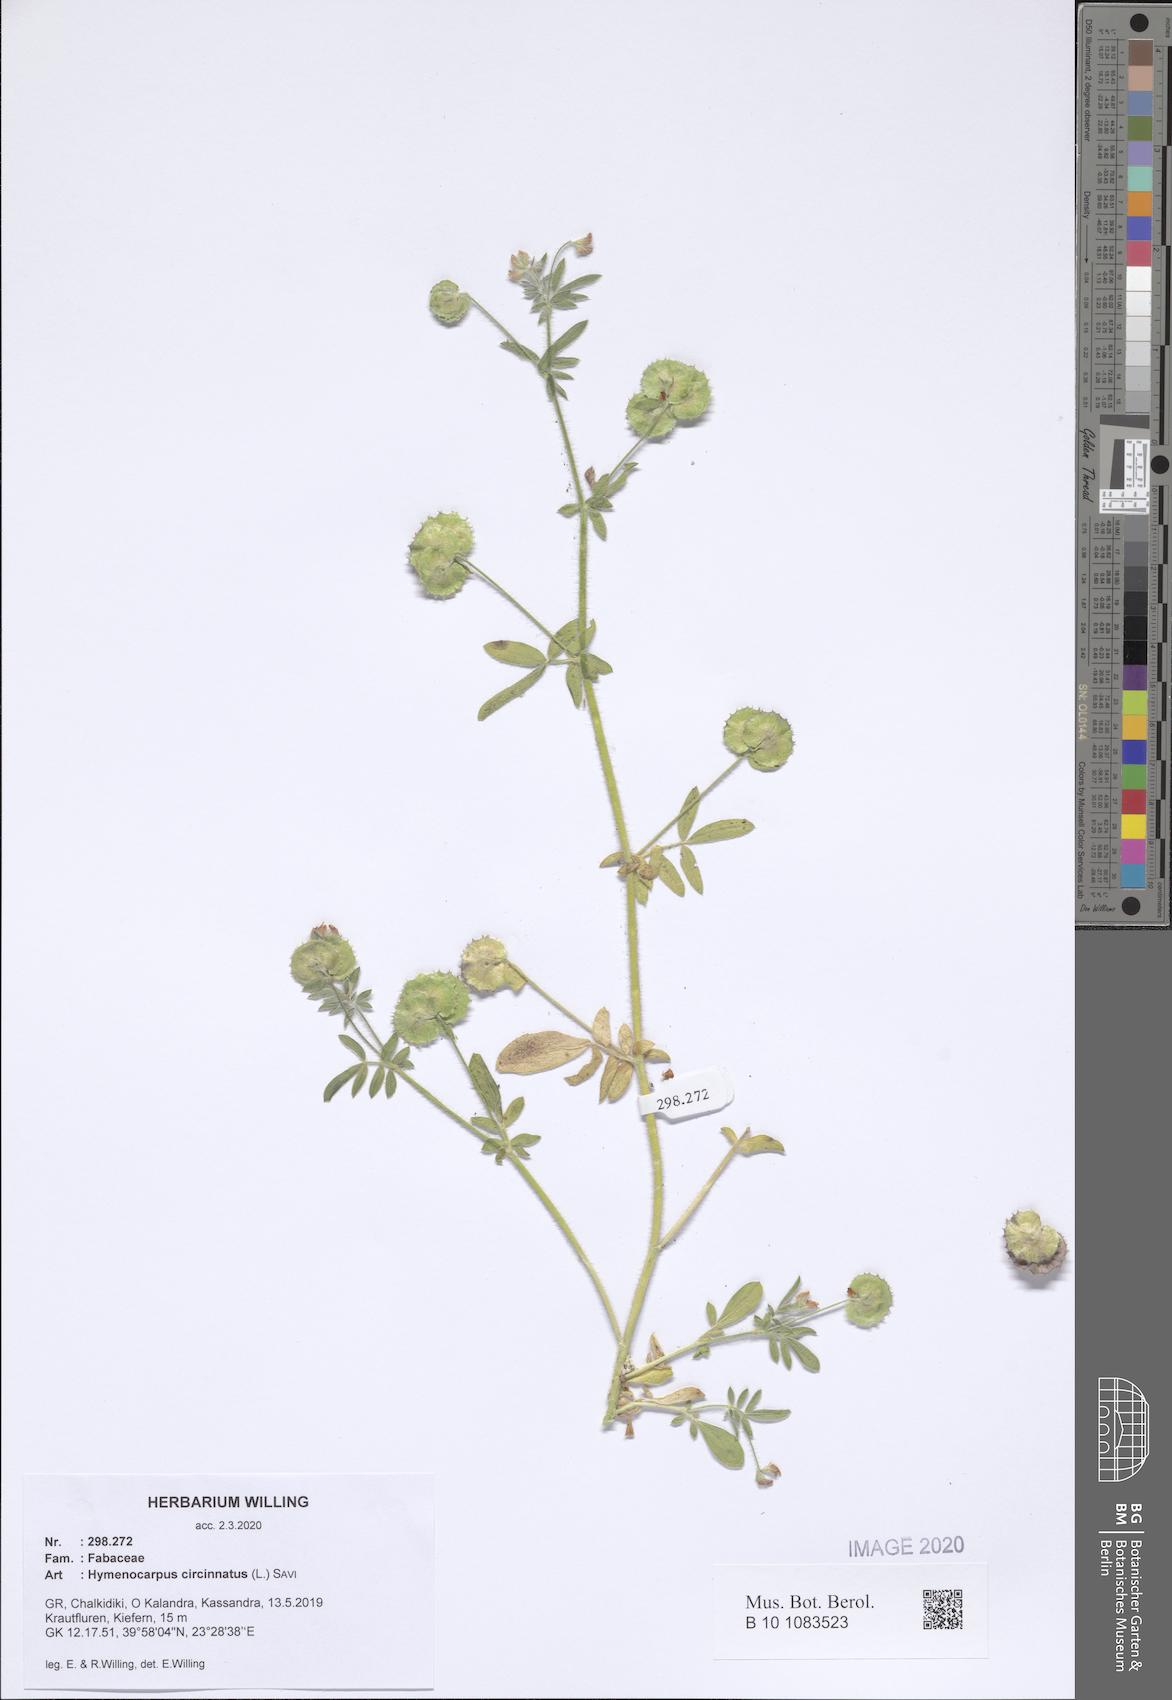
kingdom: Plantae
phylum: Tracheophyta
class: Magnoliopsida
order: Fabales
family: Fabaceae
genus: Anthyllis
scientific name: Anthyllis circinnata
